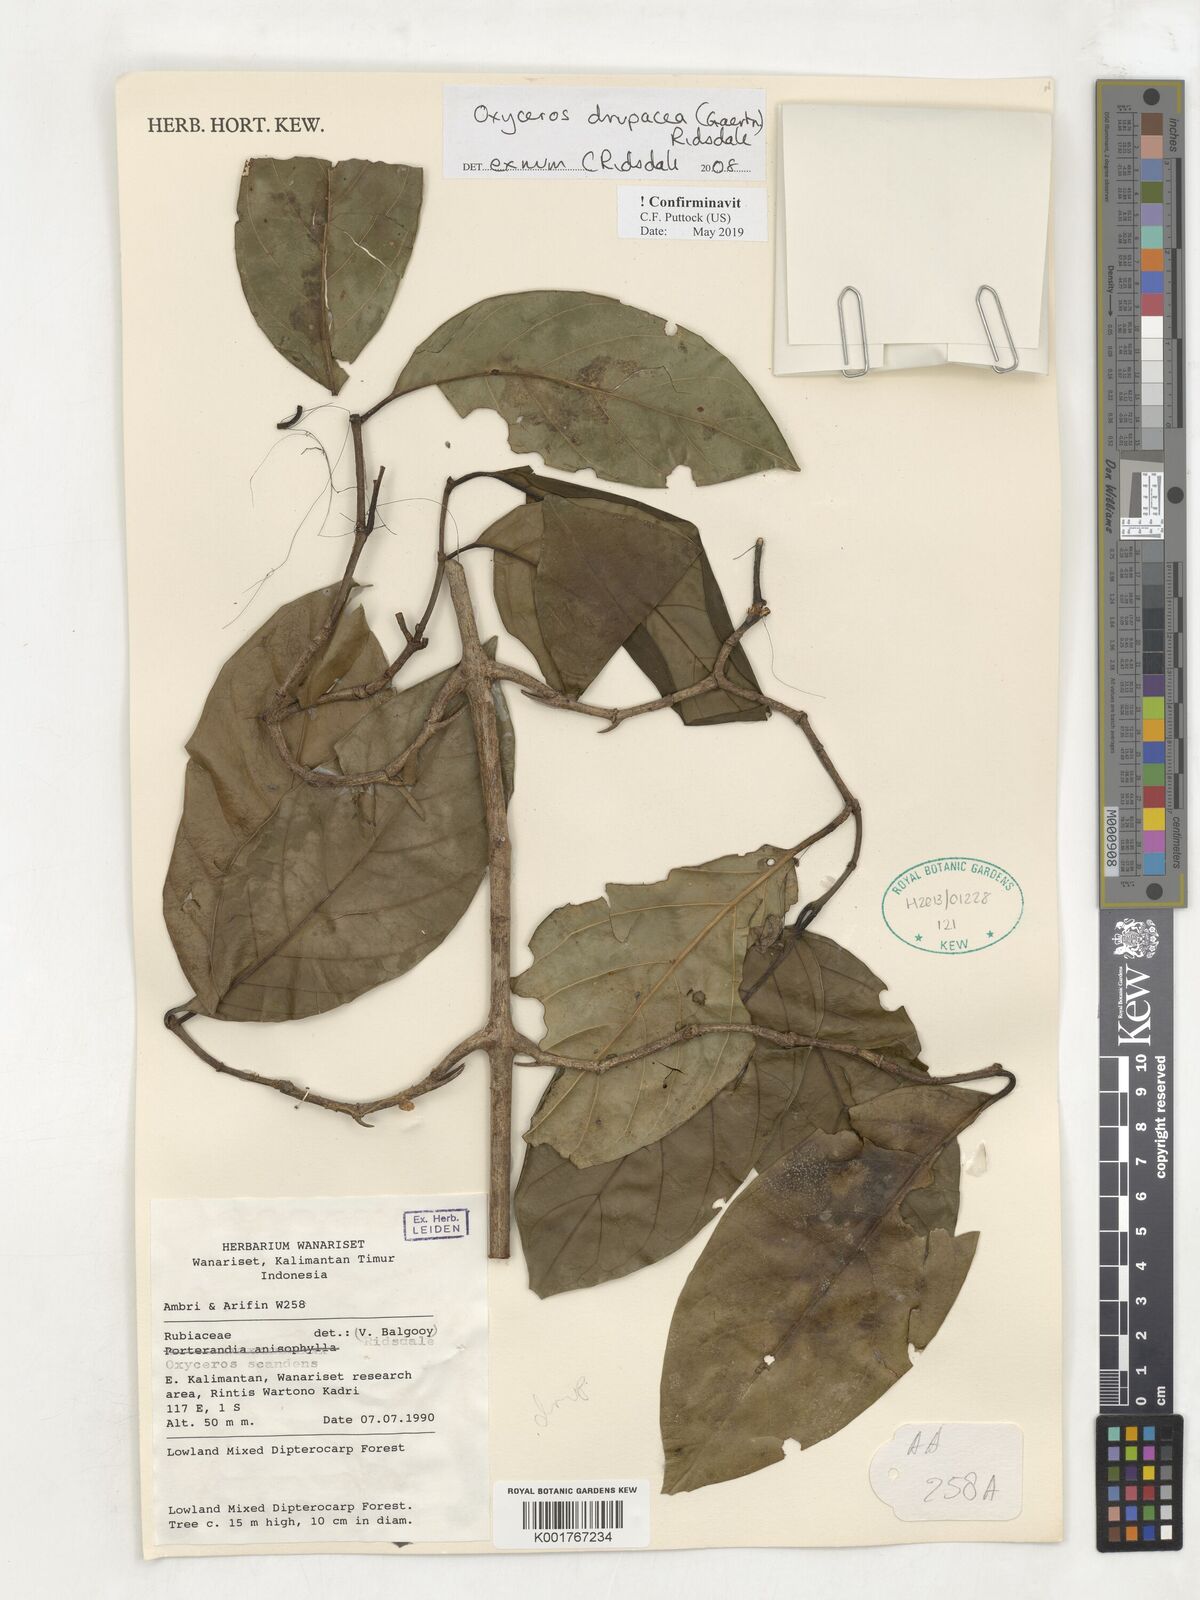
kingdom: Plantae
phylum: Tracheophyta
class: Magnoliopsida
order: Gentianales
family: Rubiaceae
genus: Oxyceros
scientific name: Oxyceros drupaceus
